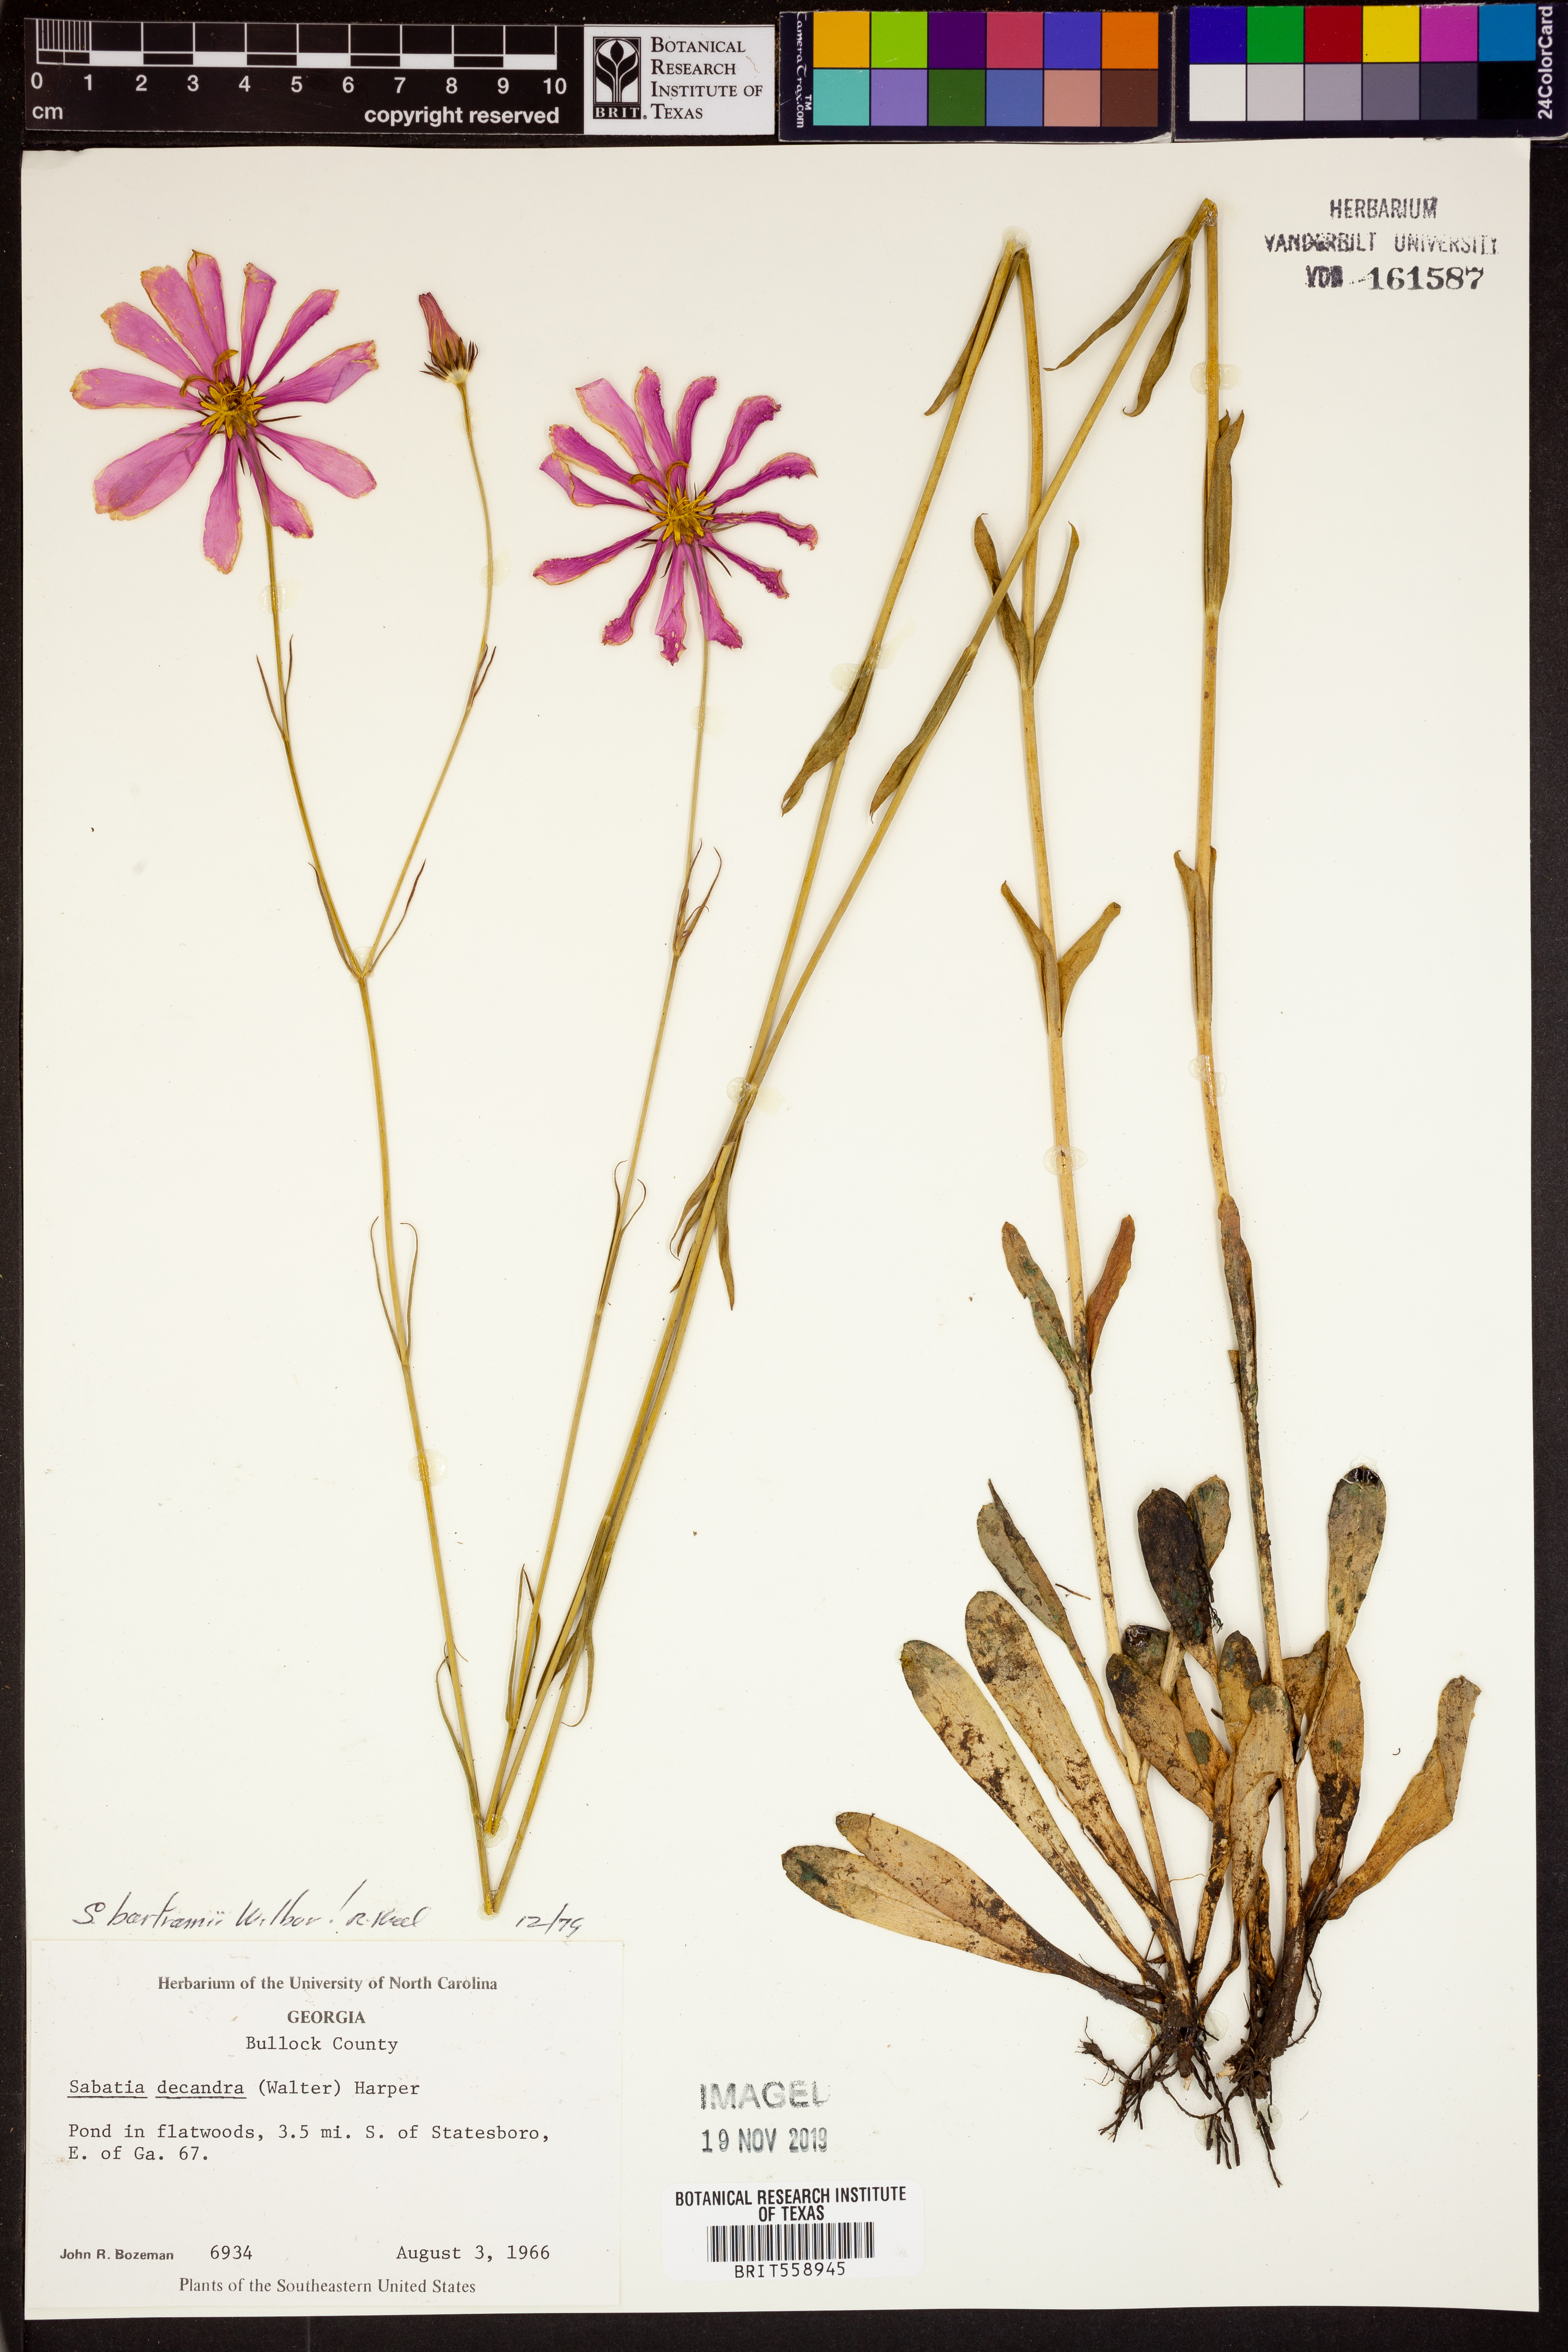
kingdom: Plantae
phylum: Tracheophyta
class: Magnoliopsida
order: Gentianales
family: Gentianaceae
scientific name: Gentianaceae
